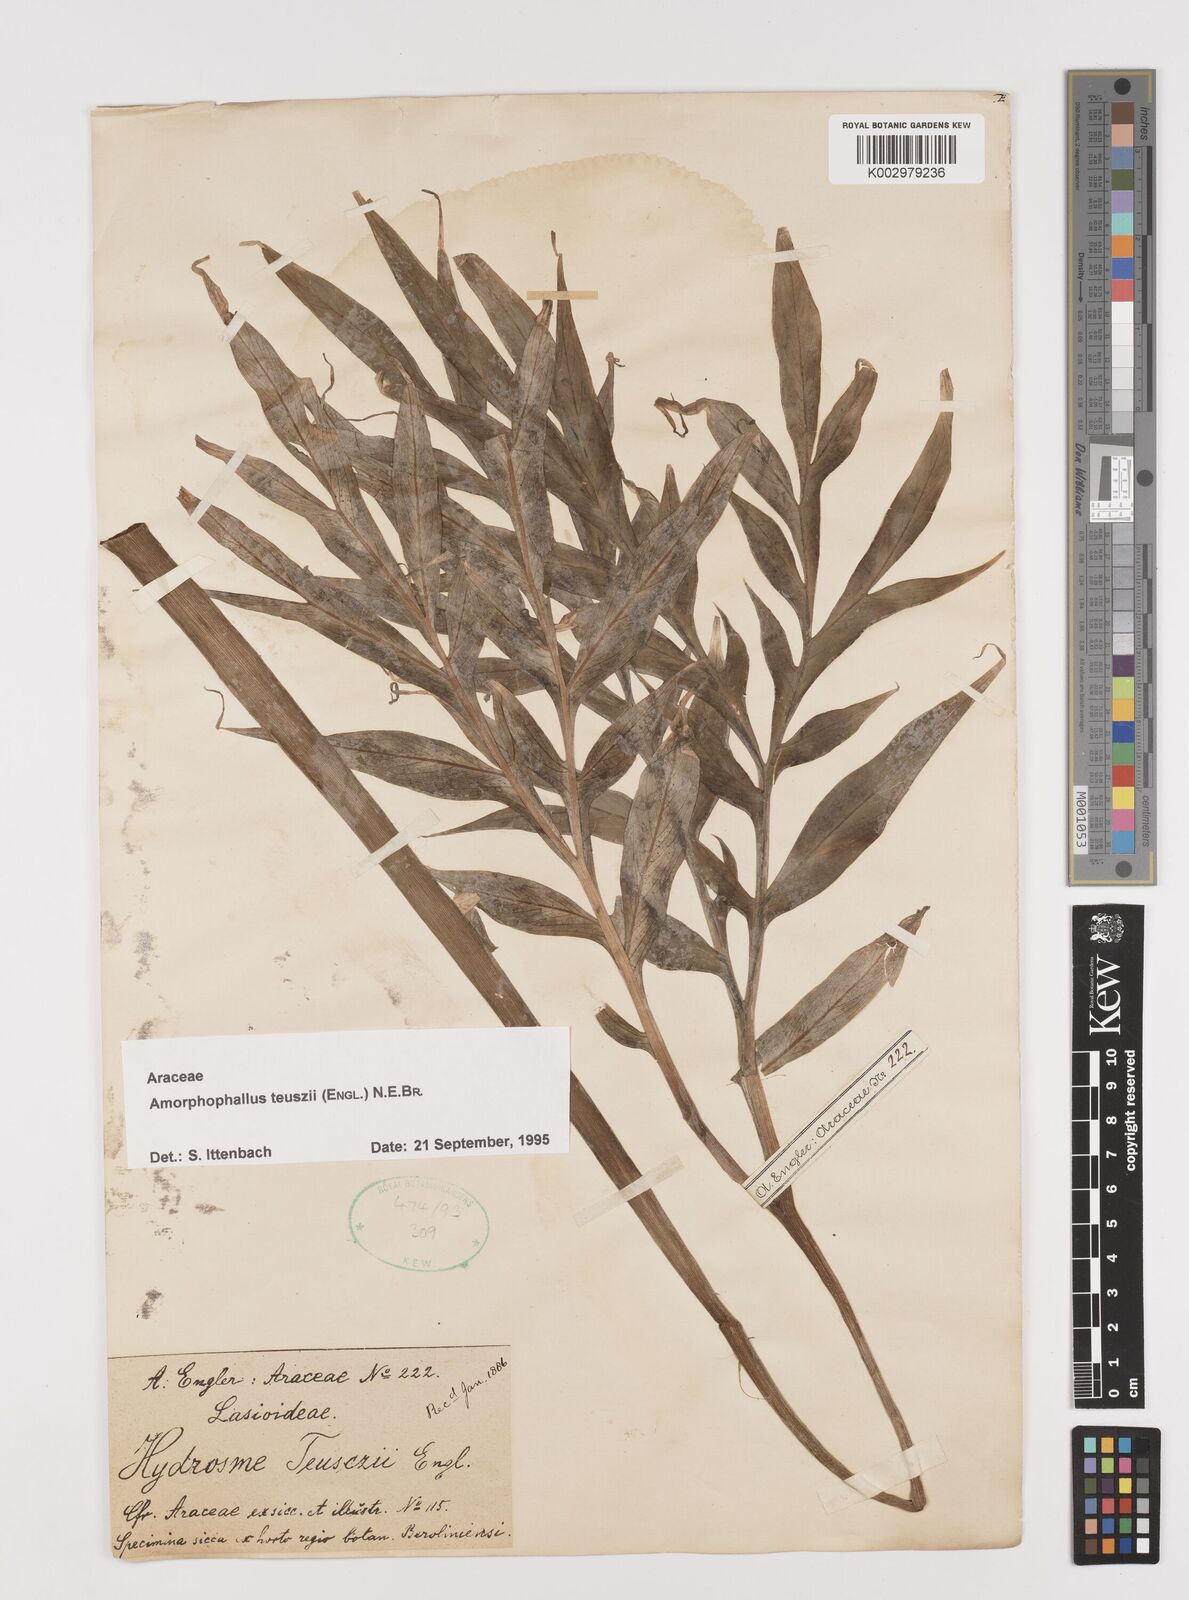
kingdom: Plantae
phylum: Tracheophyta
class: Liliopsida
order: Alismatales
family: Araceae
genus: Amorphophallus
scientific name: Amorphophallus teuszii
